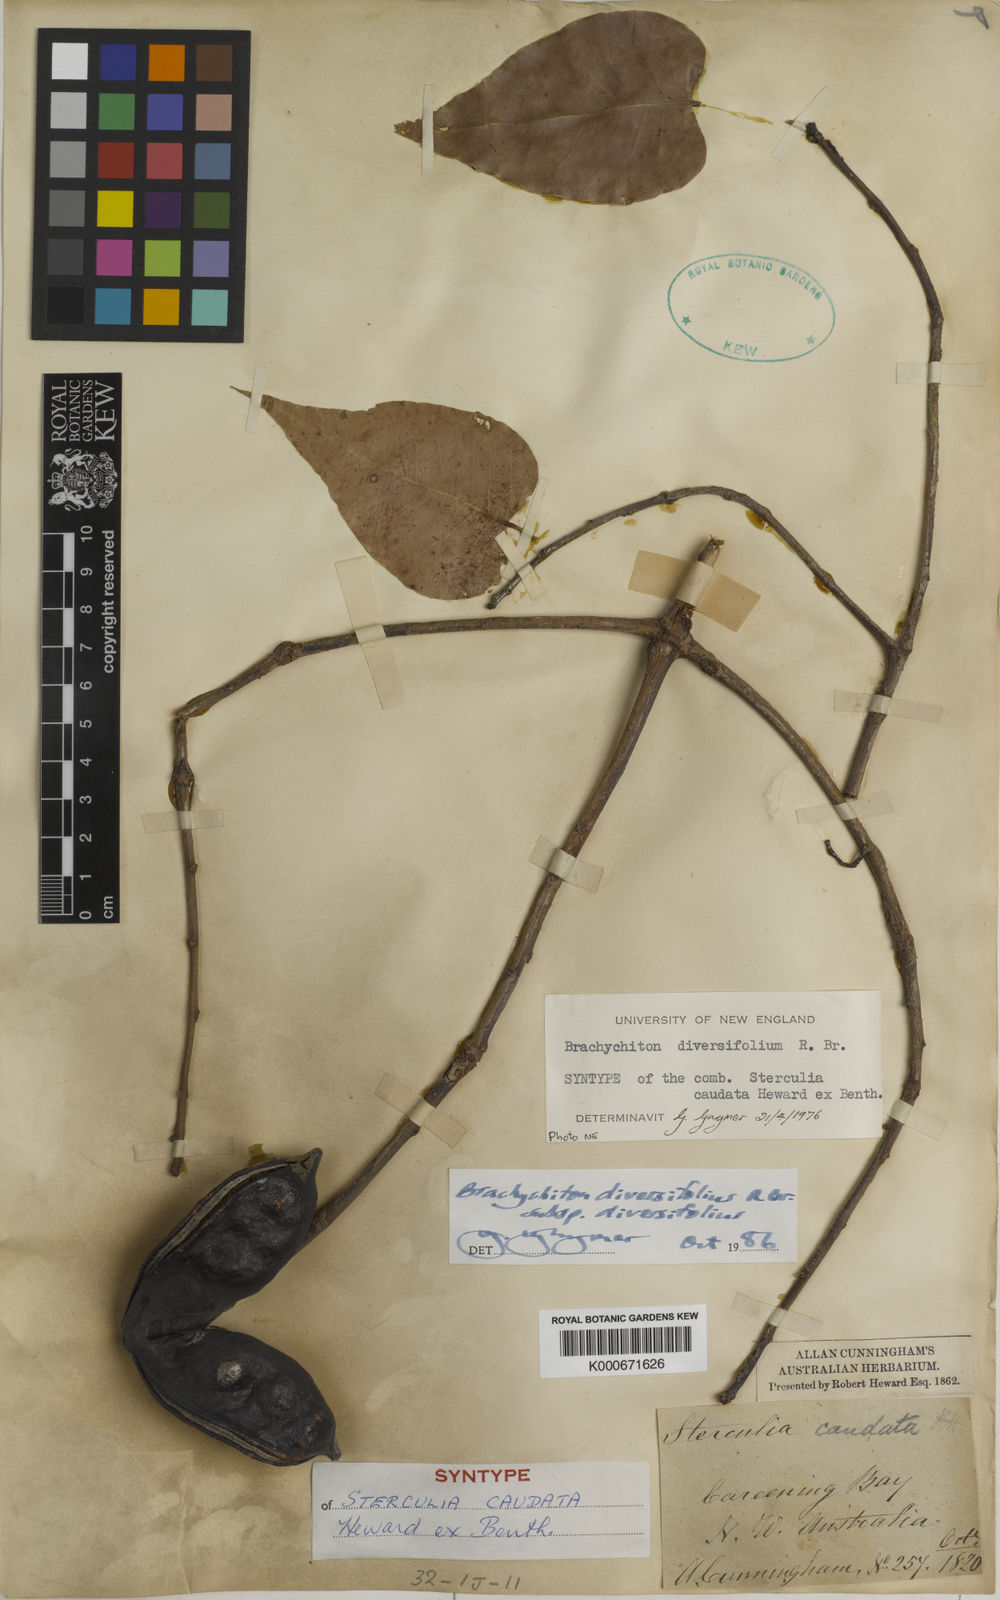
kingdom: Plantae
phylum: Tracheophyta
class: Magnoliopsida
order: Malvales
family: Malvaceae
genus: Brachychiton
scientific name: Brachychiton diversifolius
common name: Northern kurrajong
